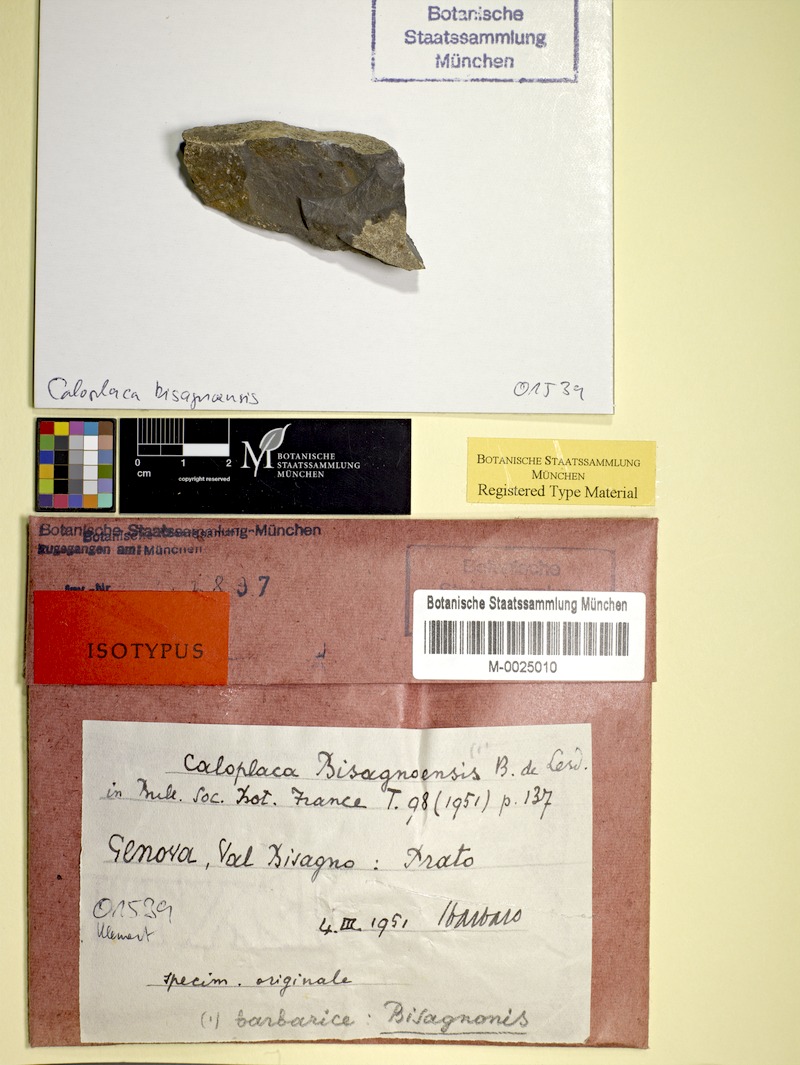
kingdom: Fungi
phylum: Ascomycota
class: Lecanoromycetes
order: Teloschistales
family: Teloschistaceae
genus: Caloplaca
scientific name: Caloplaca
